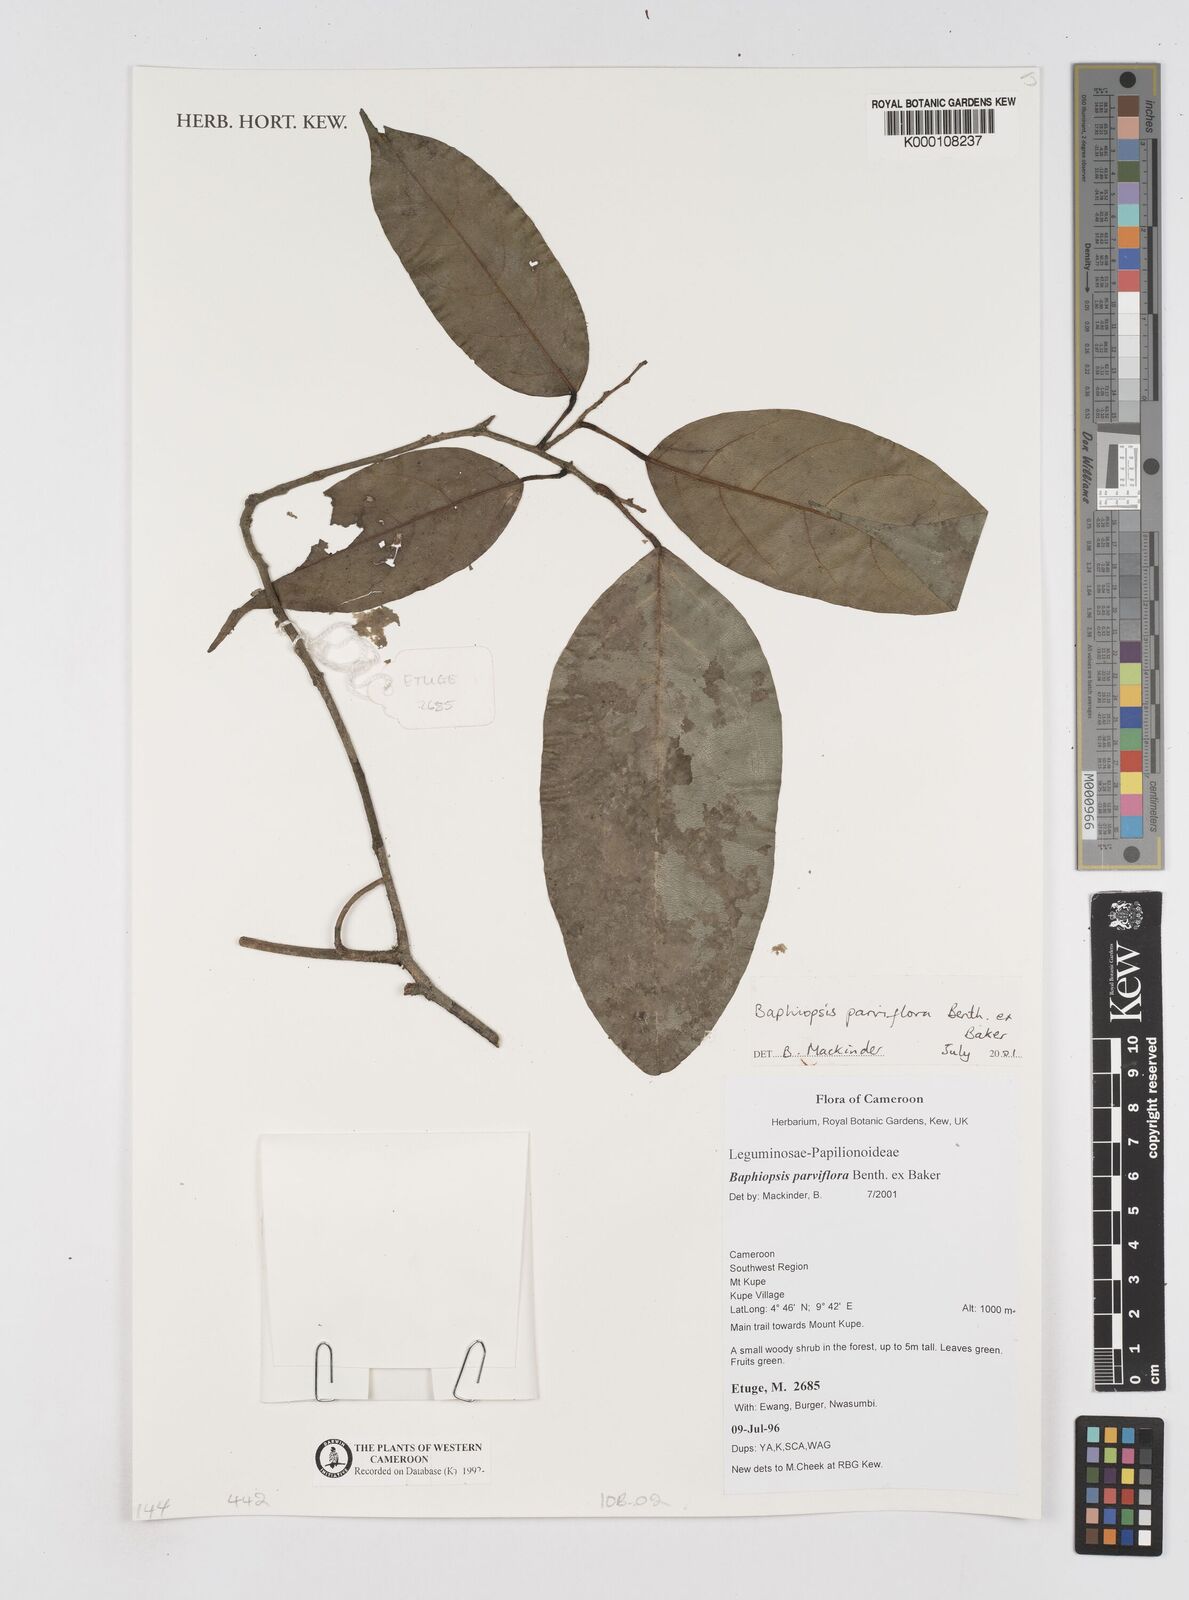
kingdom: Plantae
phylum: Tracheophyta
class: Magnoliopsida
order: Fabales
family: Fabaceae
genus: Baphiopsis
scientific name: Baphiopsis parviflora
